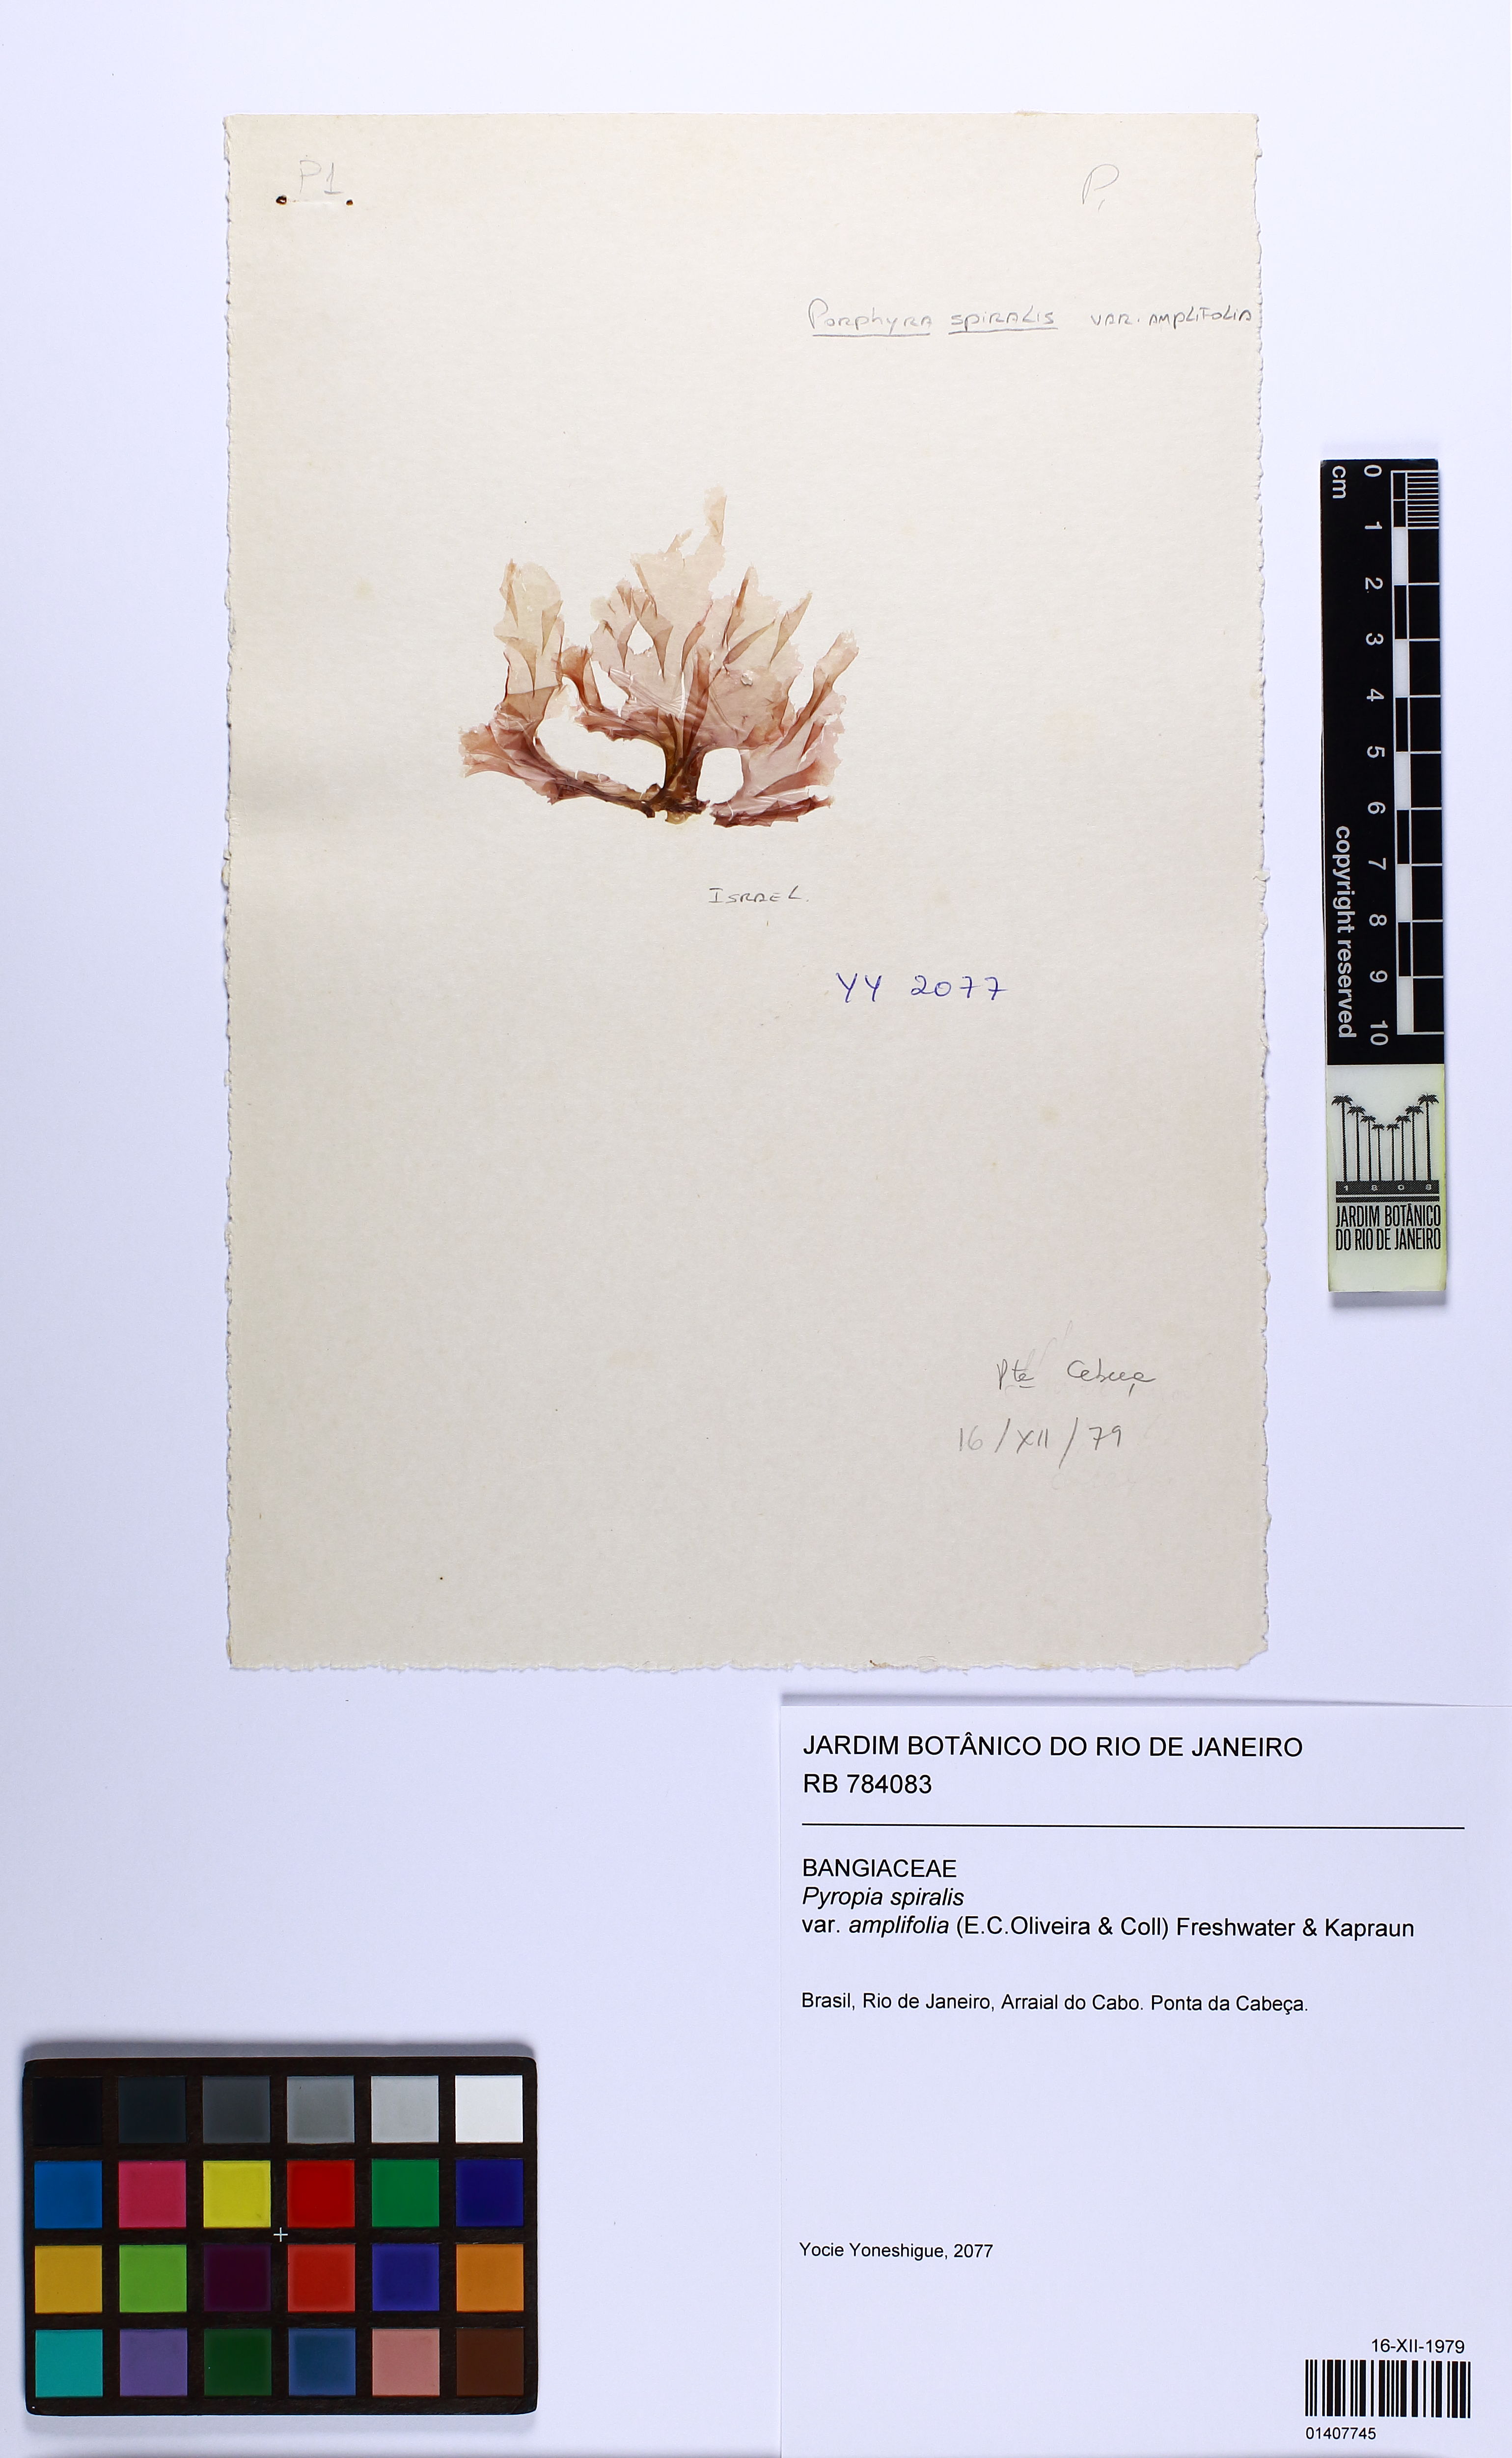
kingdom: Plantae
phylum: Rhodophyta
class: Bangiophyceae
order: Bangiales
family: Bangiaceae
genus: Pyropia
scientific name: Pyropia spiralis
